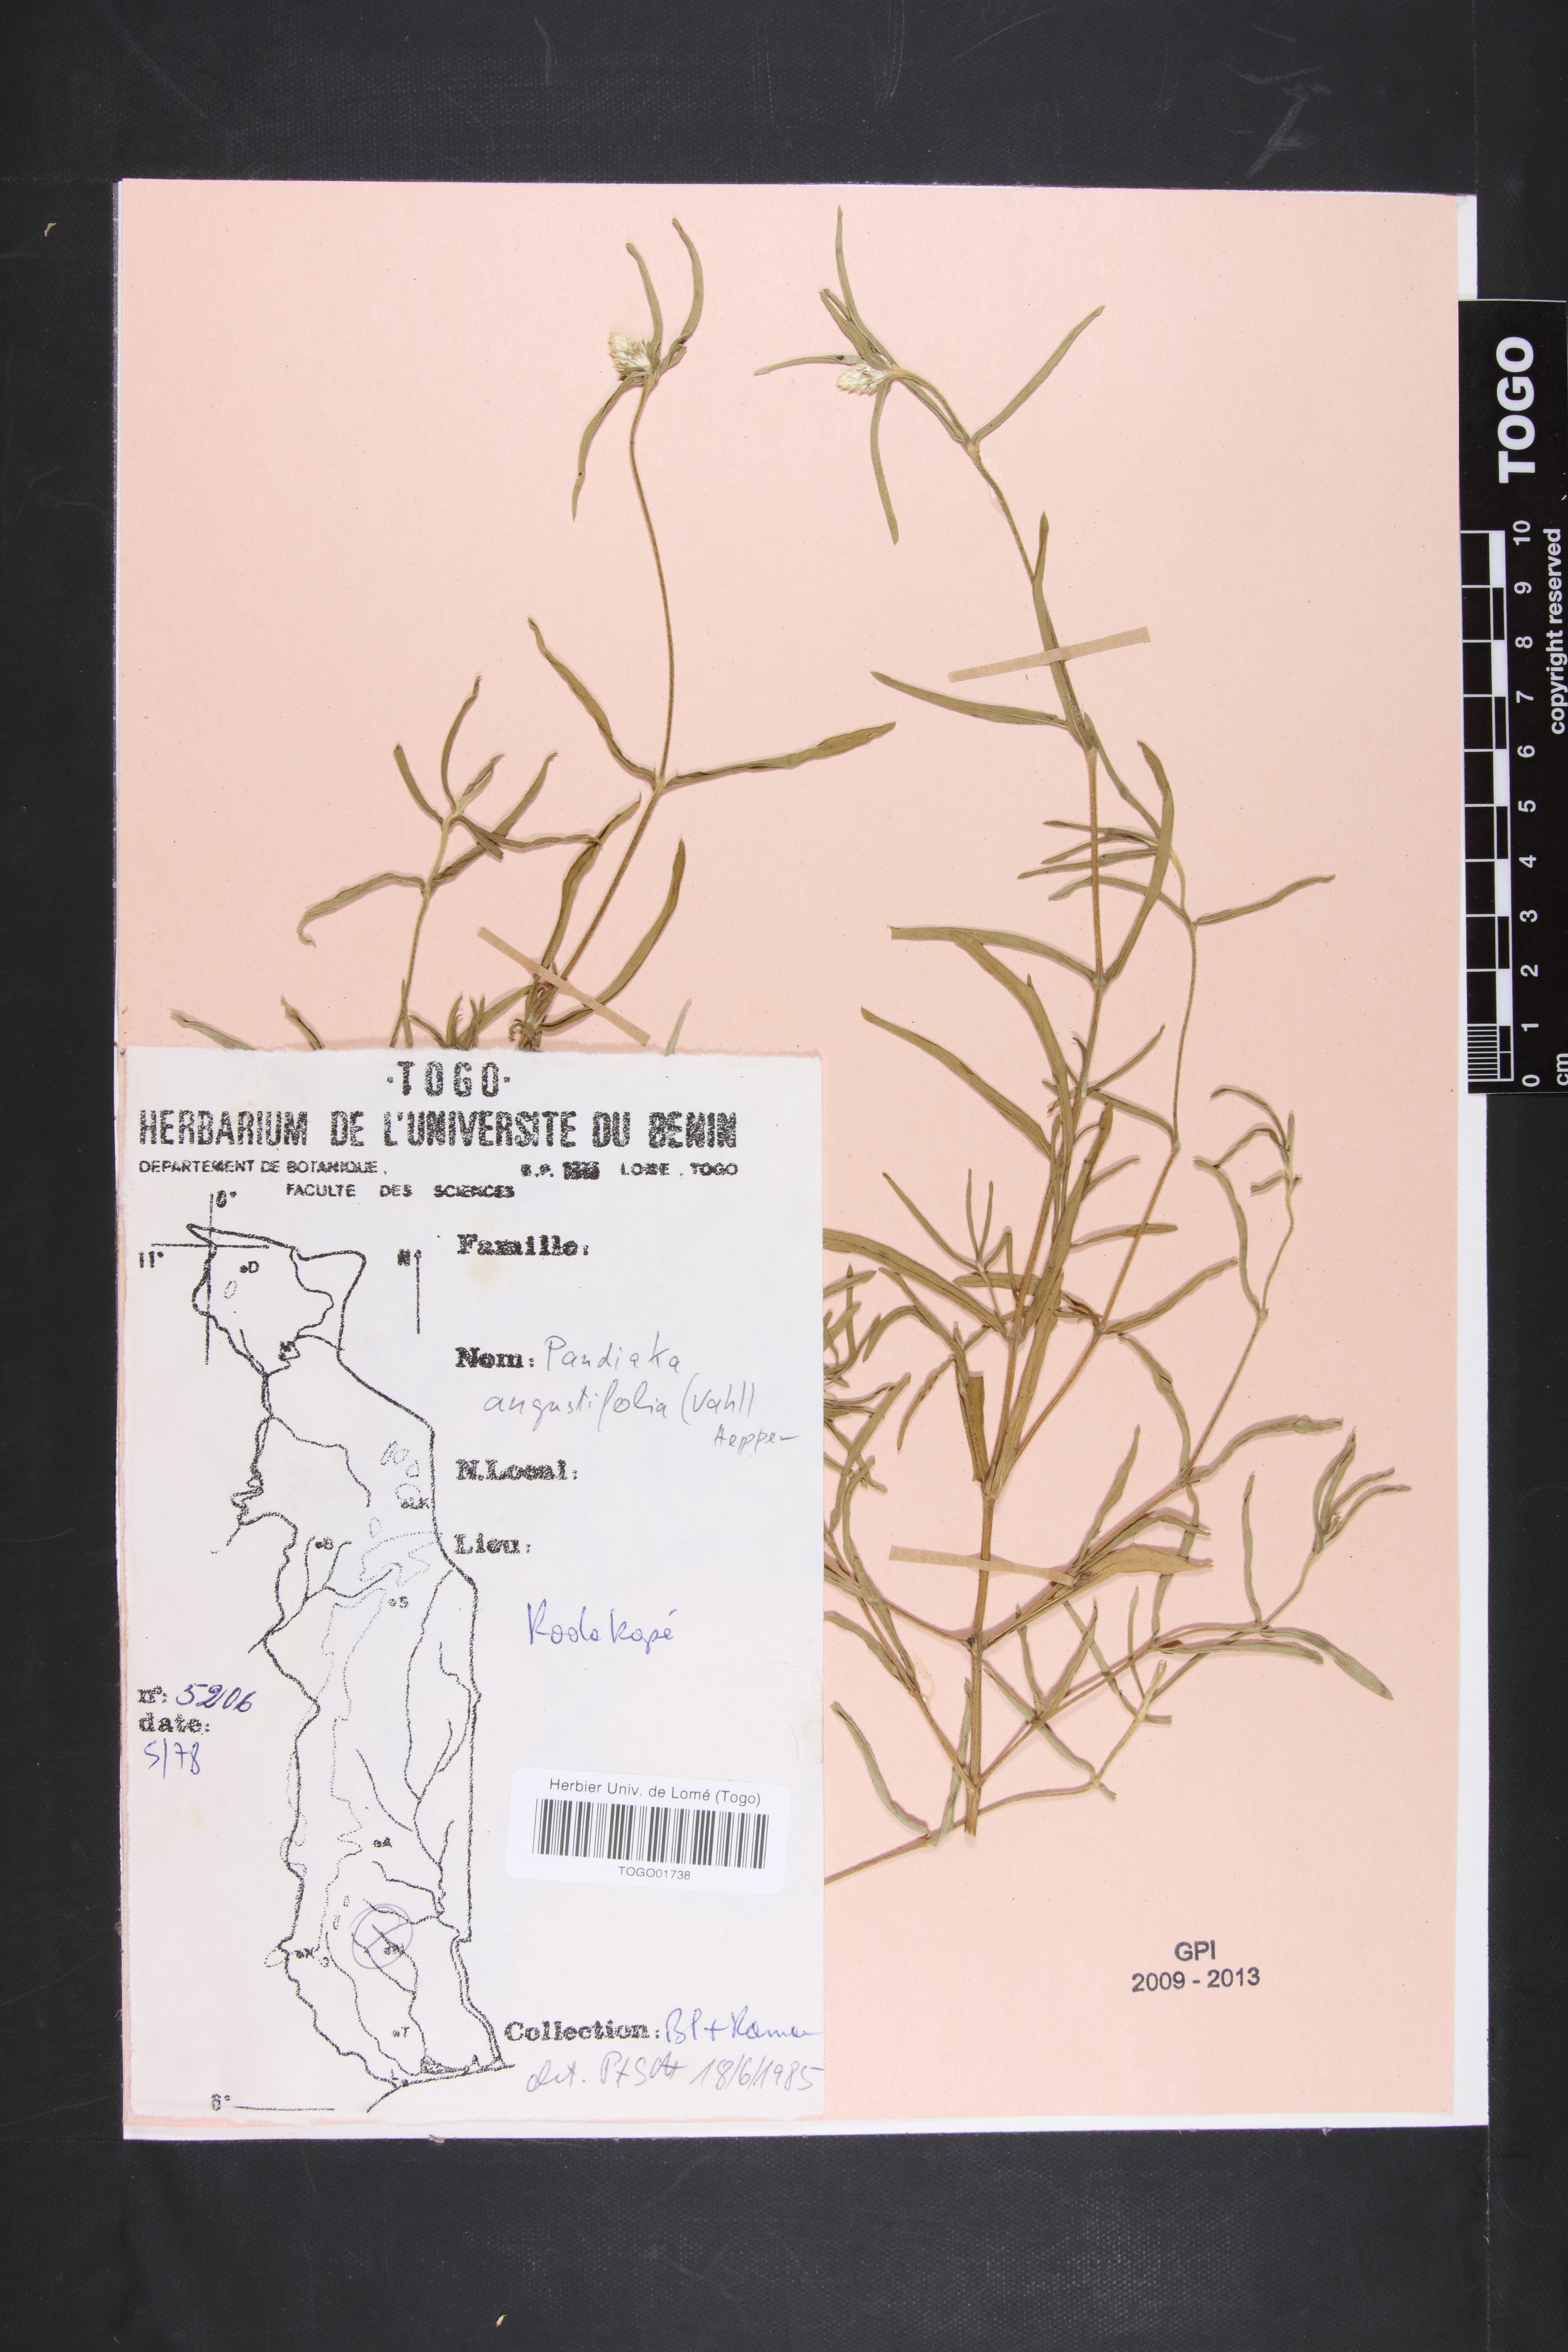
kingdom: Plantae
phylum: Tracheophyta
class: Magnoliopsida
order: Caryophyllales
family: Amaranthaceae
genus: Pandiaka
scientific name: Pandiaka angustifolia
